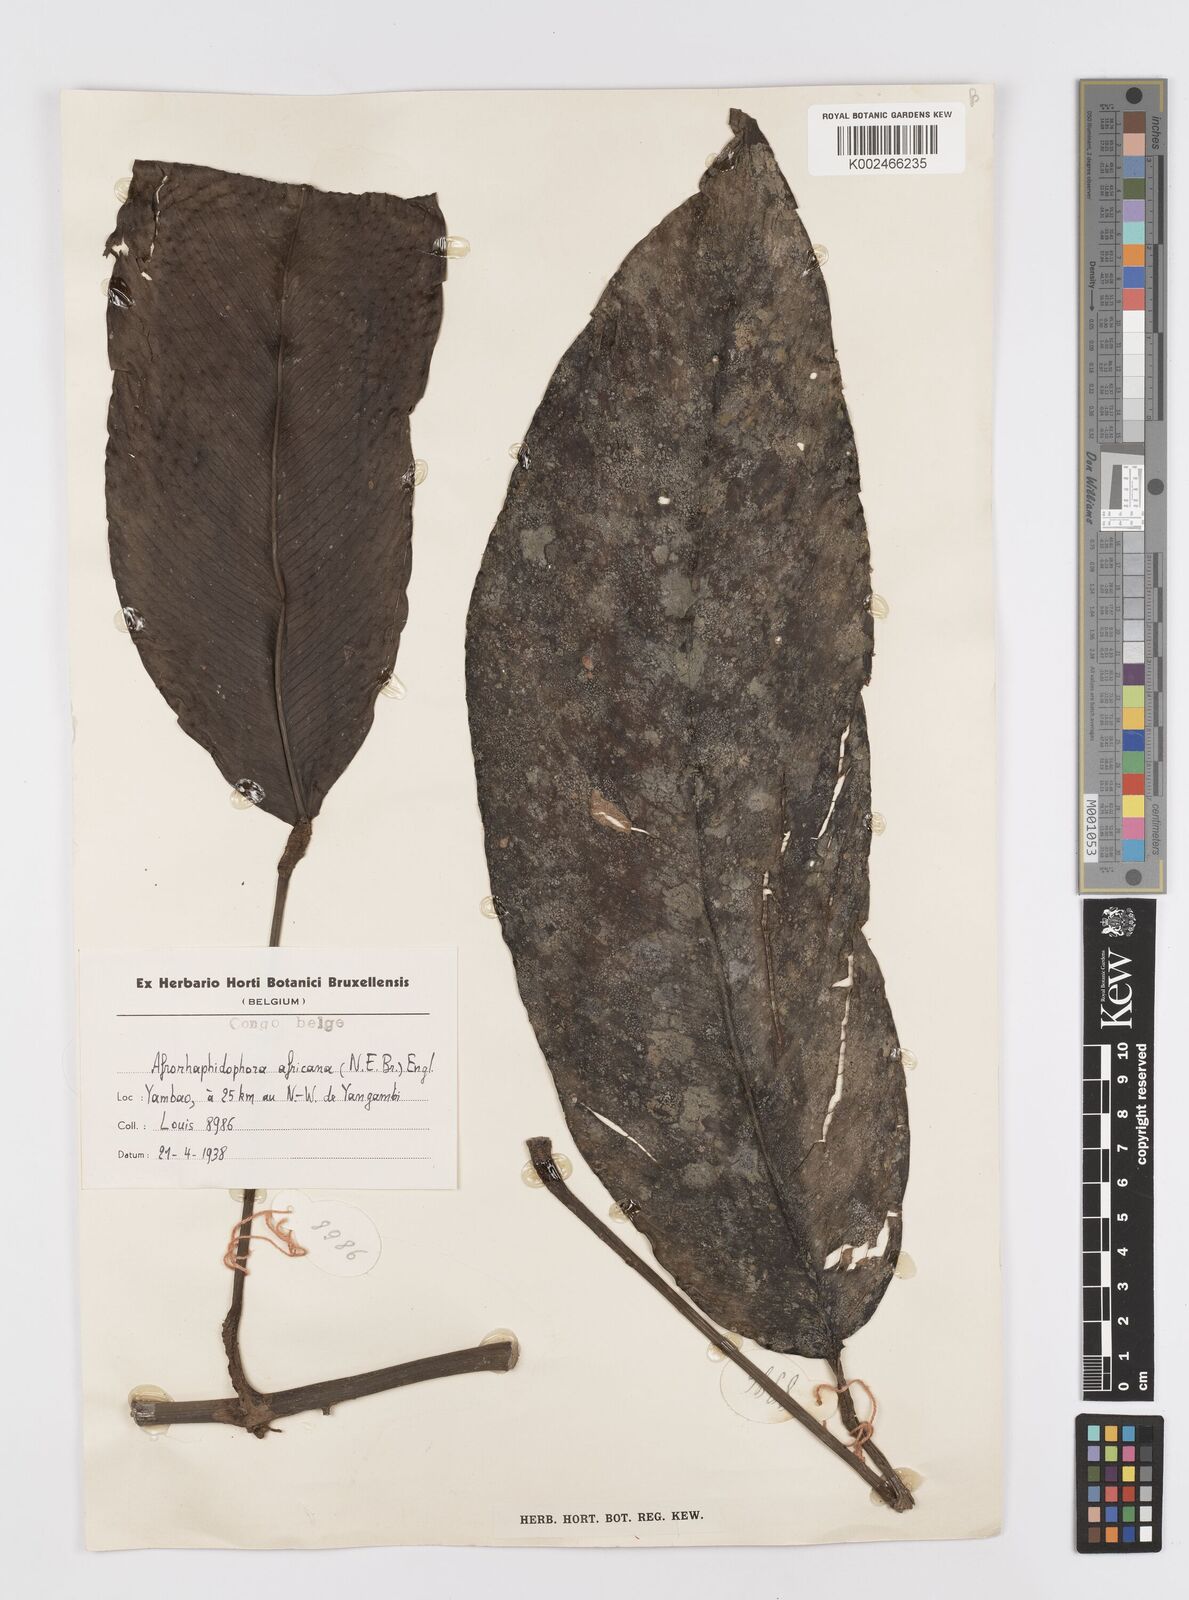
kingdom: Plantae
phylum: Tracheophyta
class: Liliopsida
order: Alismatales
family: Araceae
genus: Rhaphidophora
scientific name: Rhaphidophora africana
